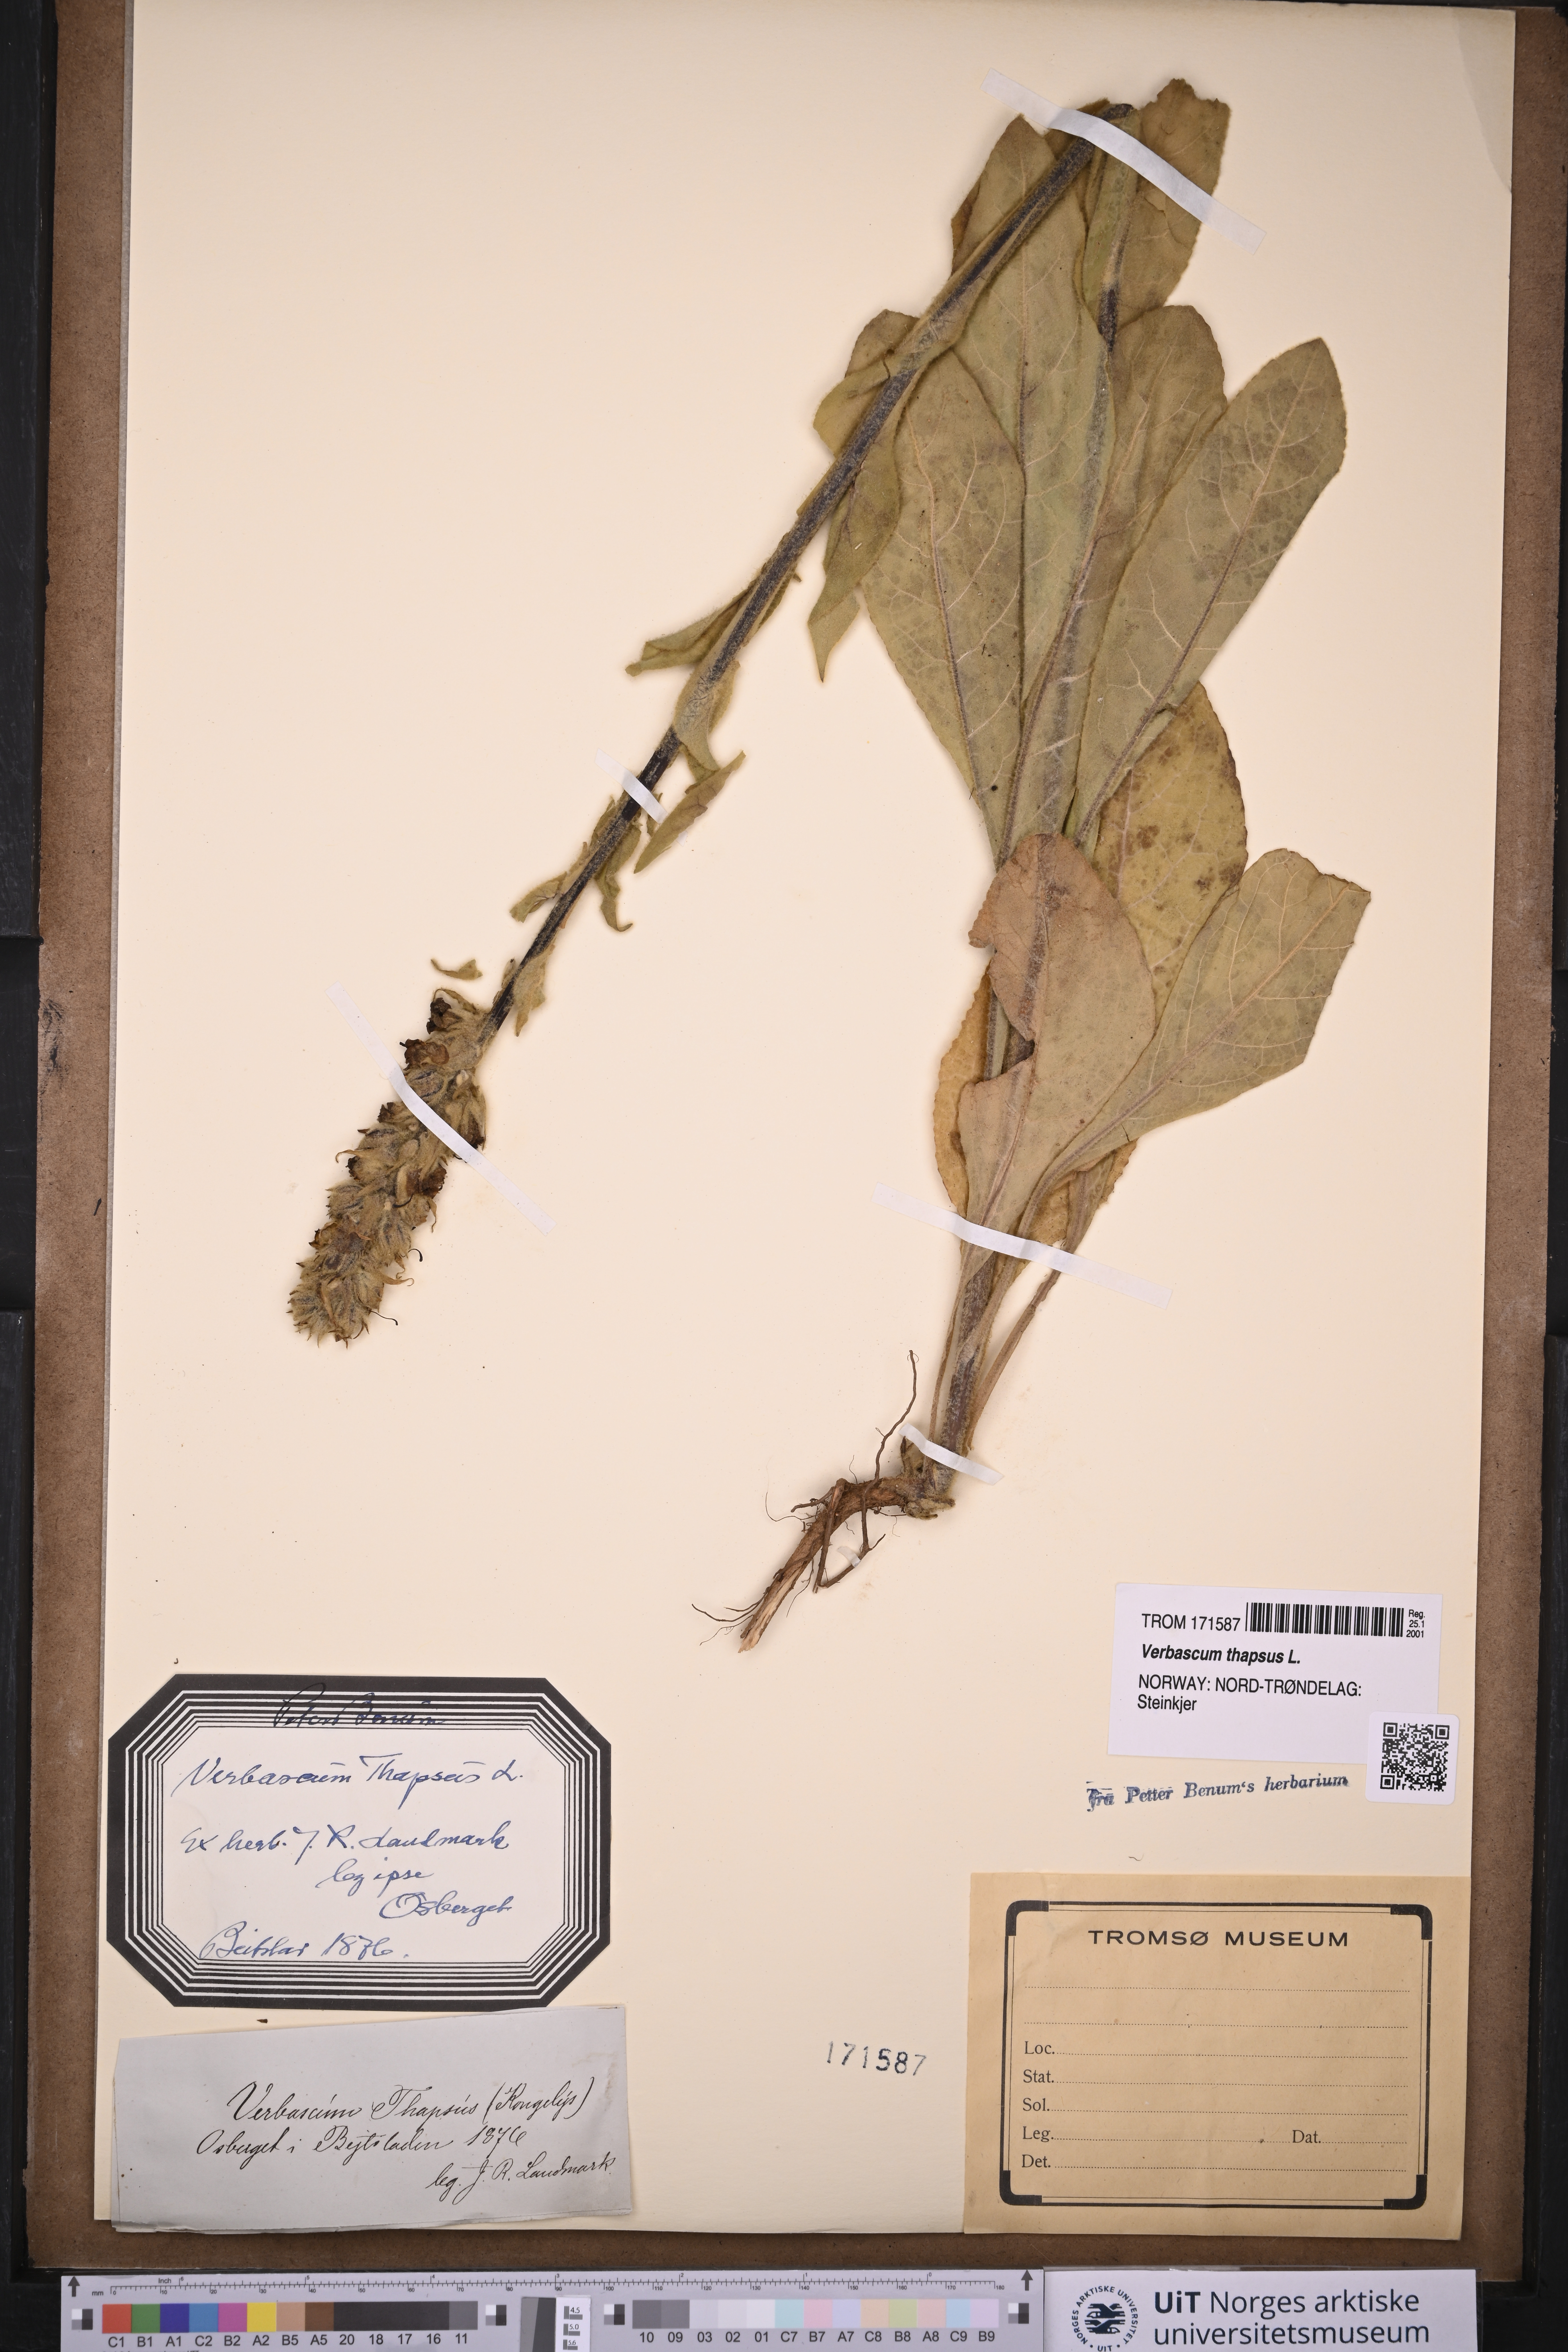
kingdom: Plantae
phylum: Tracheophyta
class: Magnoliopsida
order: Lamiales
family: Scrophulariaceae
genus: Verbascum
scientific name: Verbascum thapsus
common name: Common mullein
